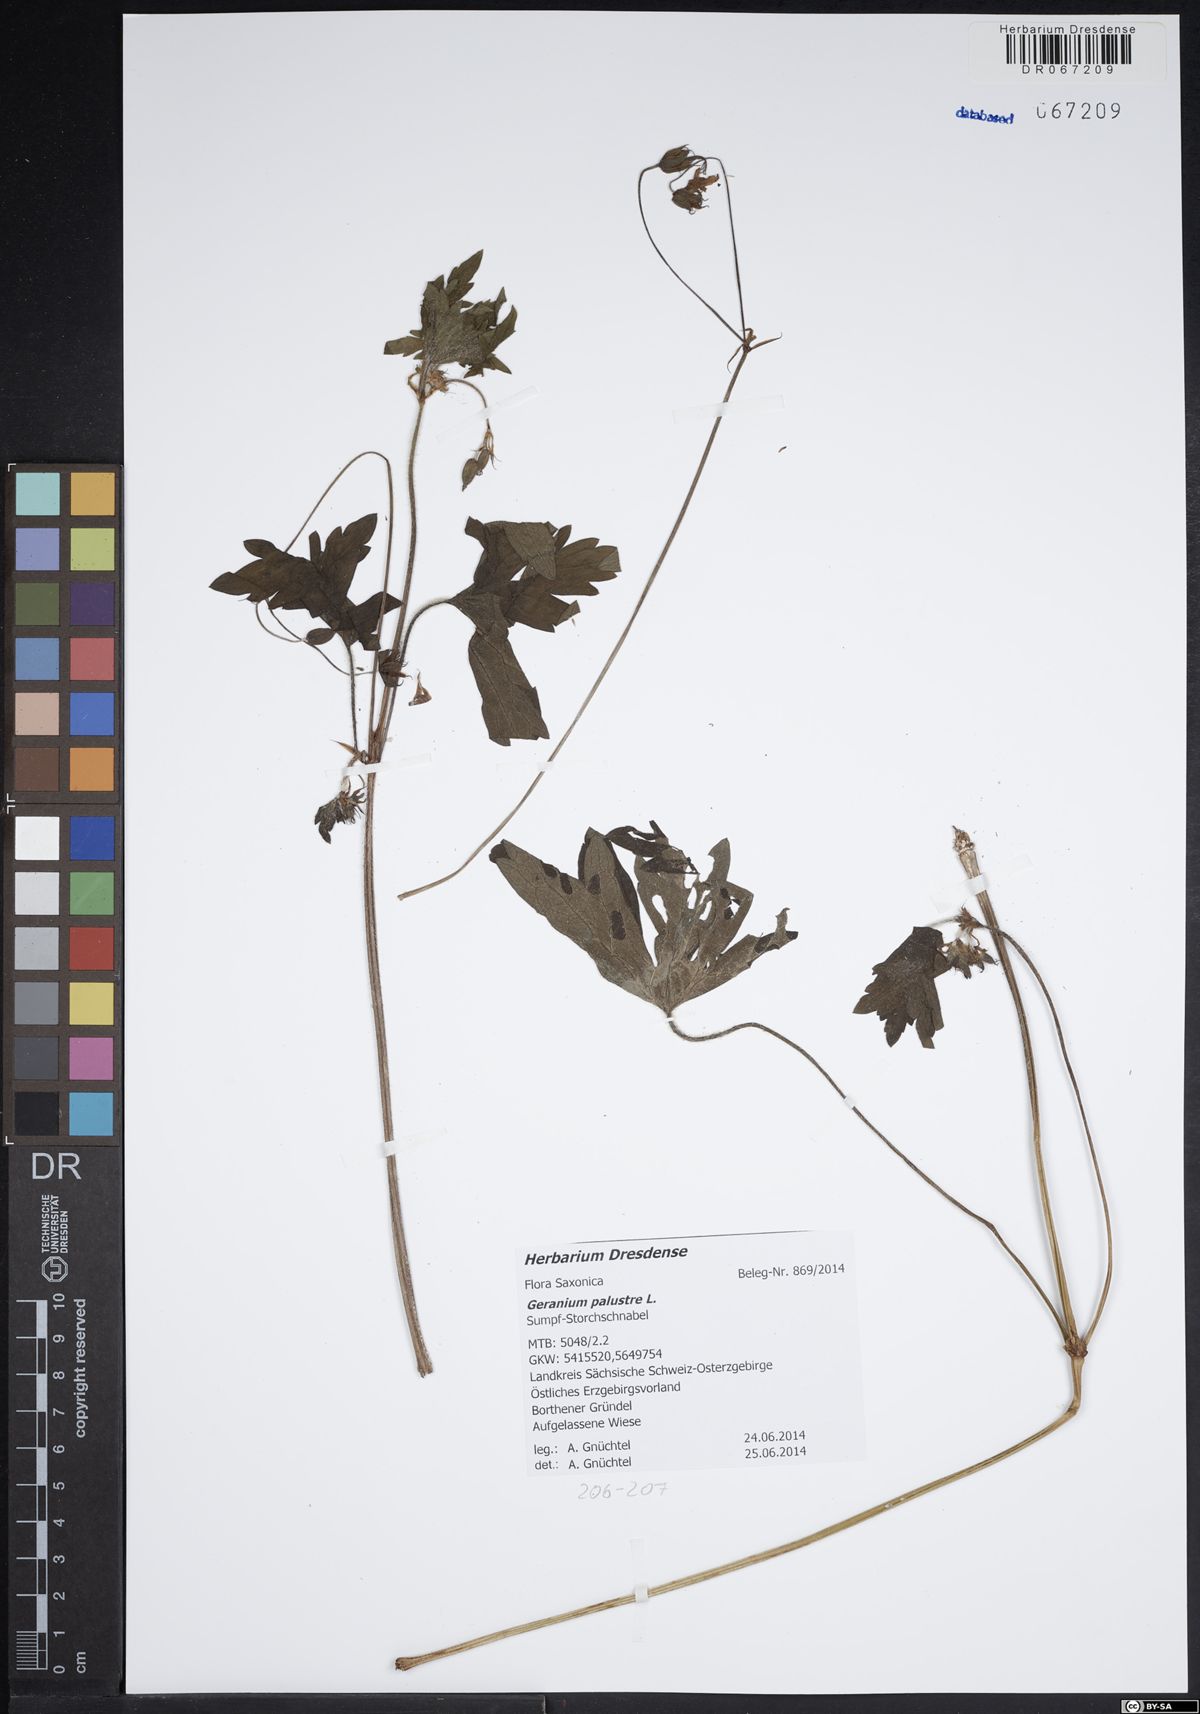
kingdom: Plantae
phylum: Tracheophyta
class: Magnoliopsida
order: Geraniales
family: Geraniaceae
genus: Geranium
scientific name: Geranium palustre
